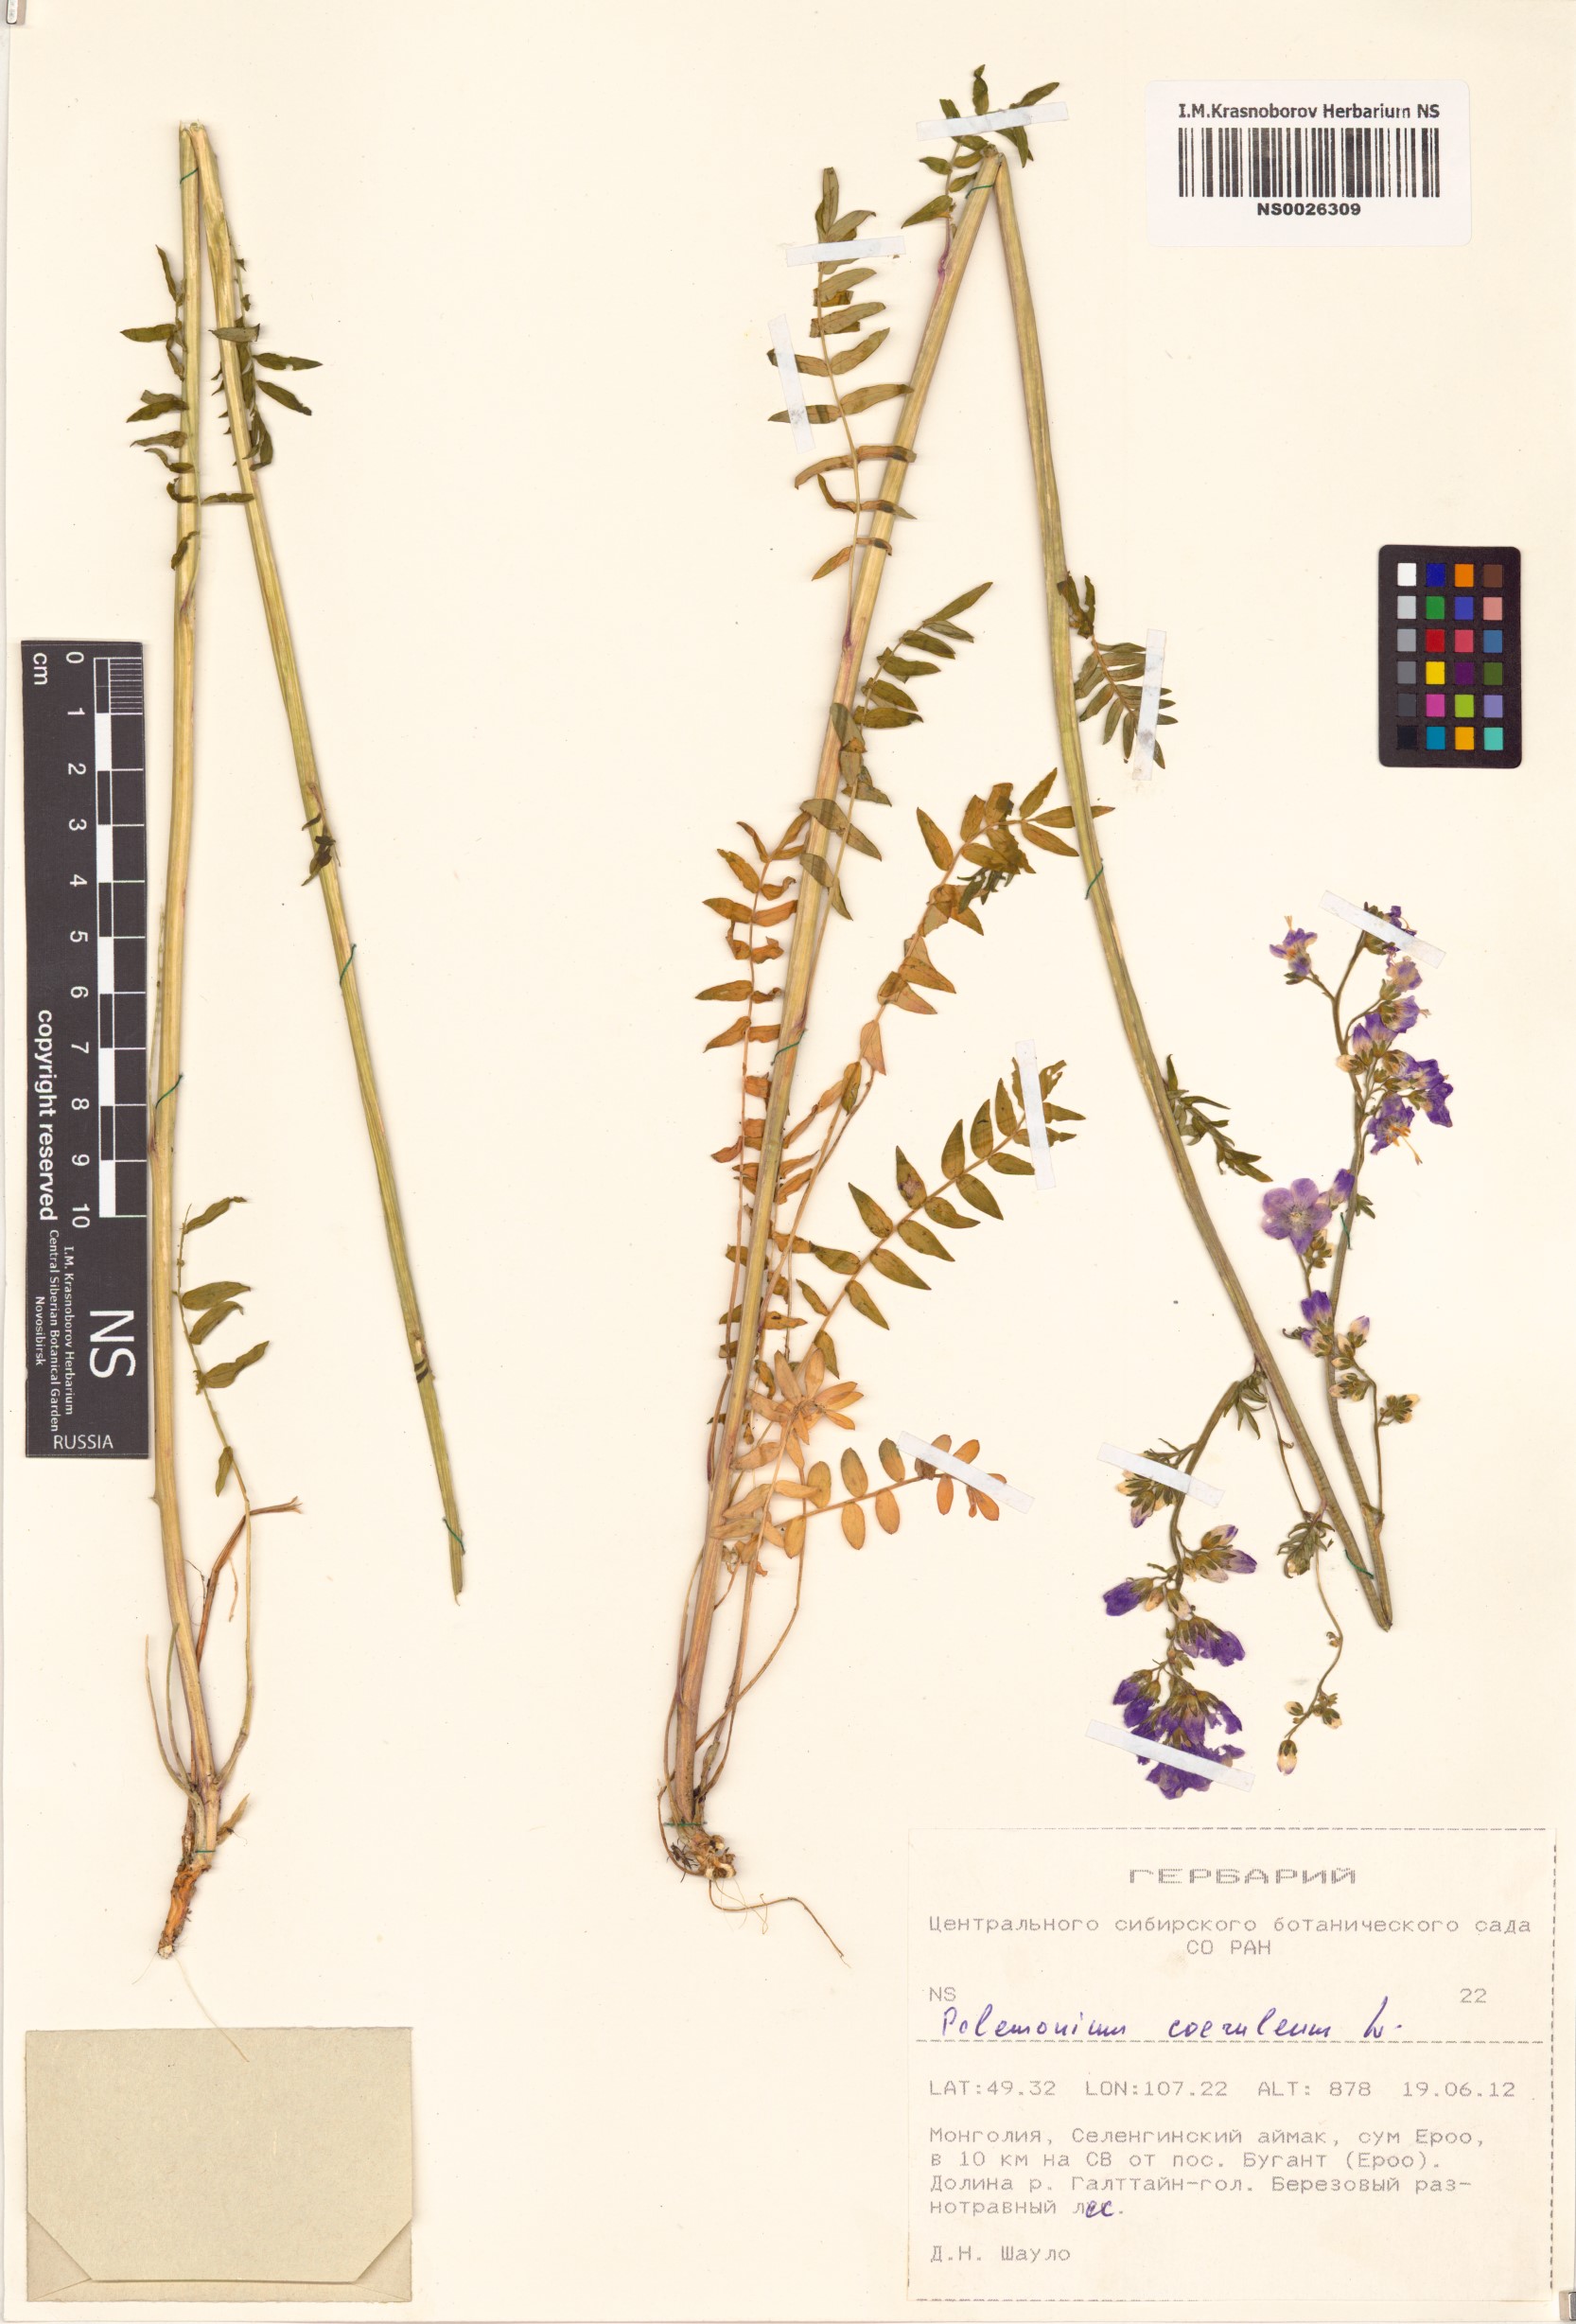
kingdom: Plantae
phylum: Tracheophyta
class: Magnoliopsida
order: Ericales
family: Polemoniaceae
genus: Polemonium
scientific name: Polemonium caeruleum
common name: Jacob's-ladder
